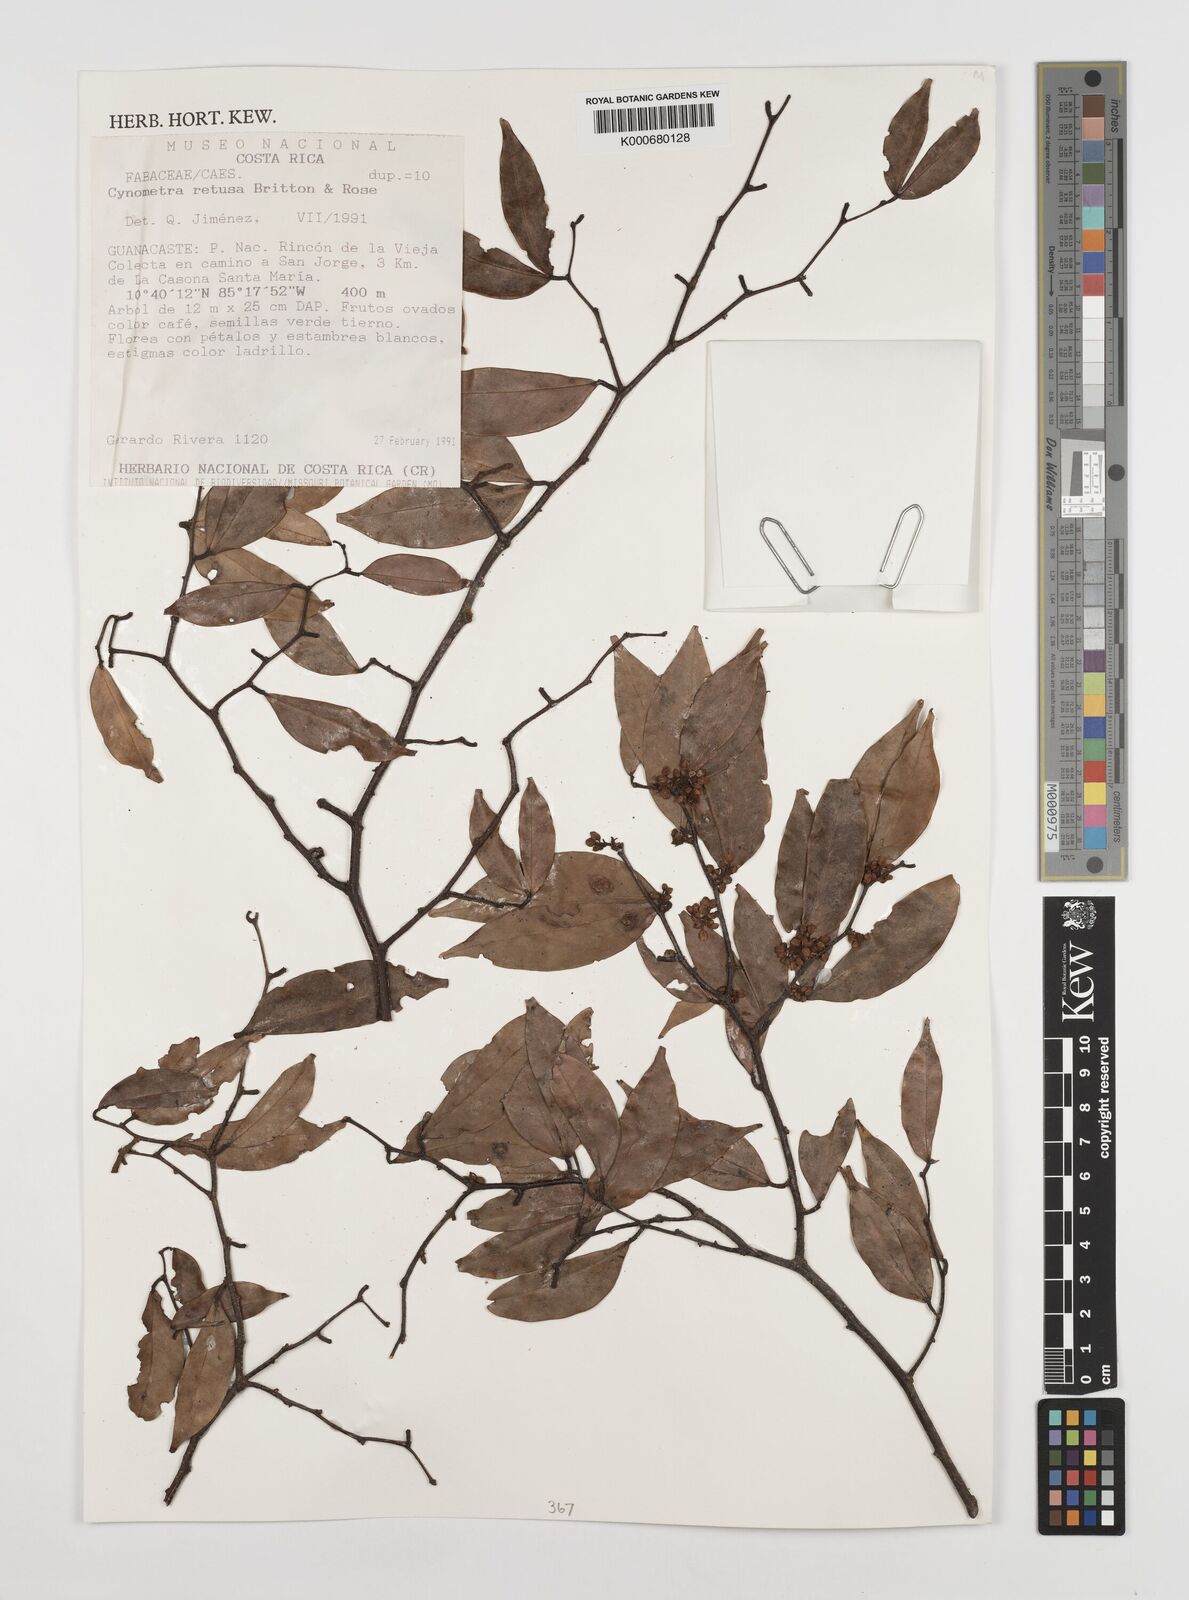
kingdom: Plantae
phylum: Tracheophyta
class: Magnoliopsida
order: Fabales
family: Fabaceae
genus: Cynometra
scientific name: Cynometra retusa
